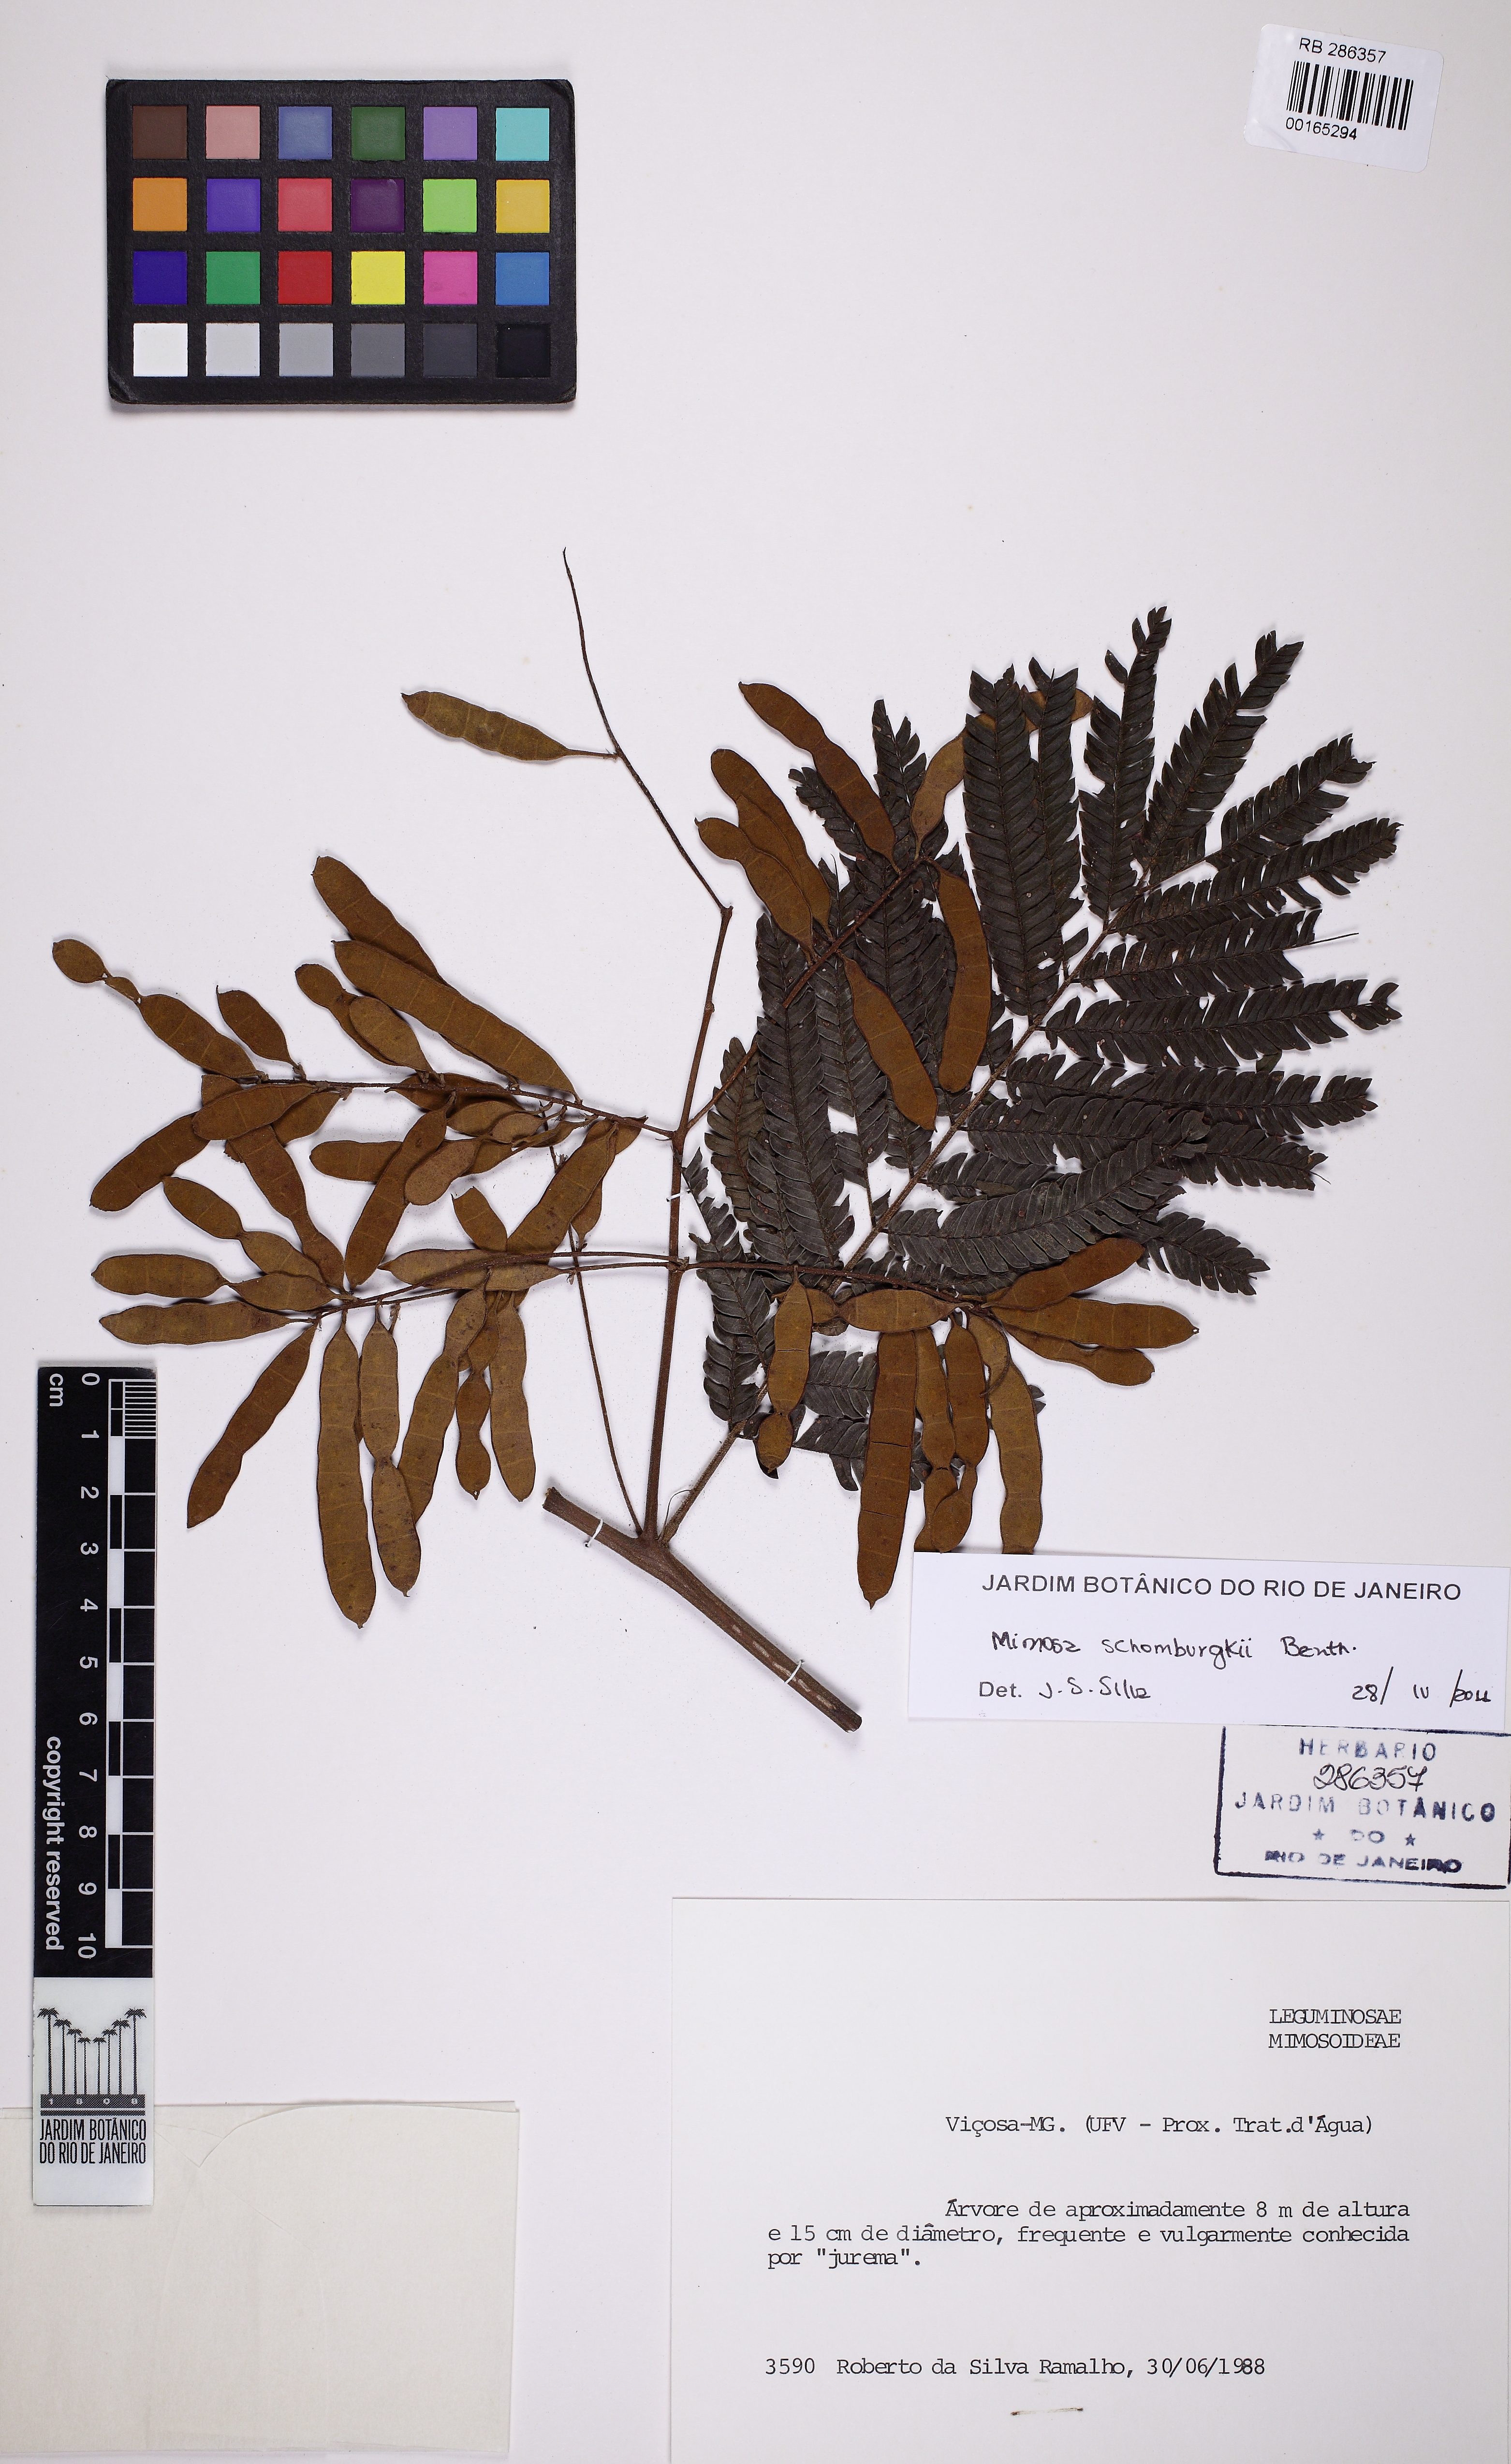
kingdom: Plantae
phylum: Tracheophyta
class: Magnoliopsida
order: Fabales
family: Fabaceae
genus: Mimosa
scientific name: Mimosa schomburgkii
